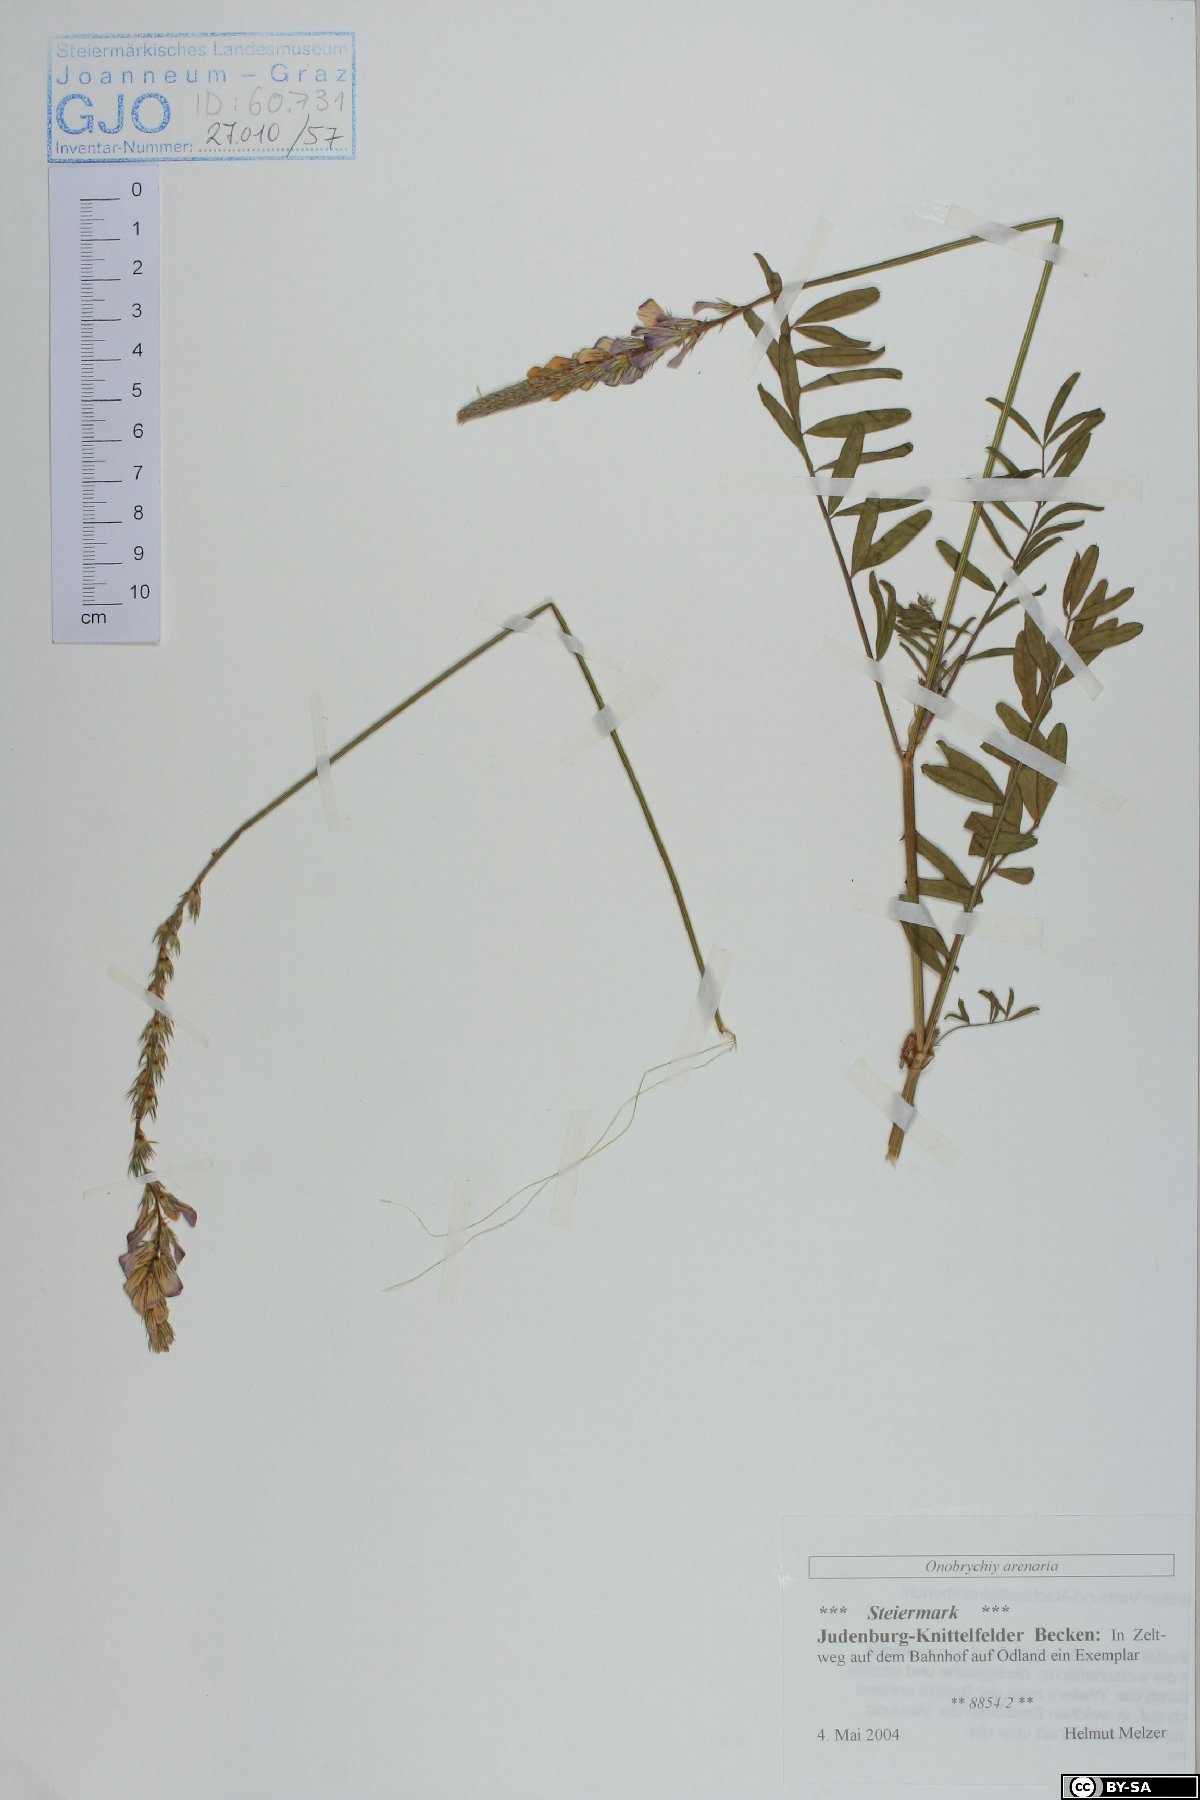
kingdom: Plantae
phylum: Tracheophyta
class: Magnoliopsida
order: Fabales
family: Fabaceae
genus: Onobrychis
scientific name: Onobrychis arenaria
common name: Sand esparcet
